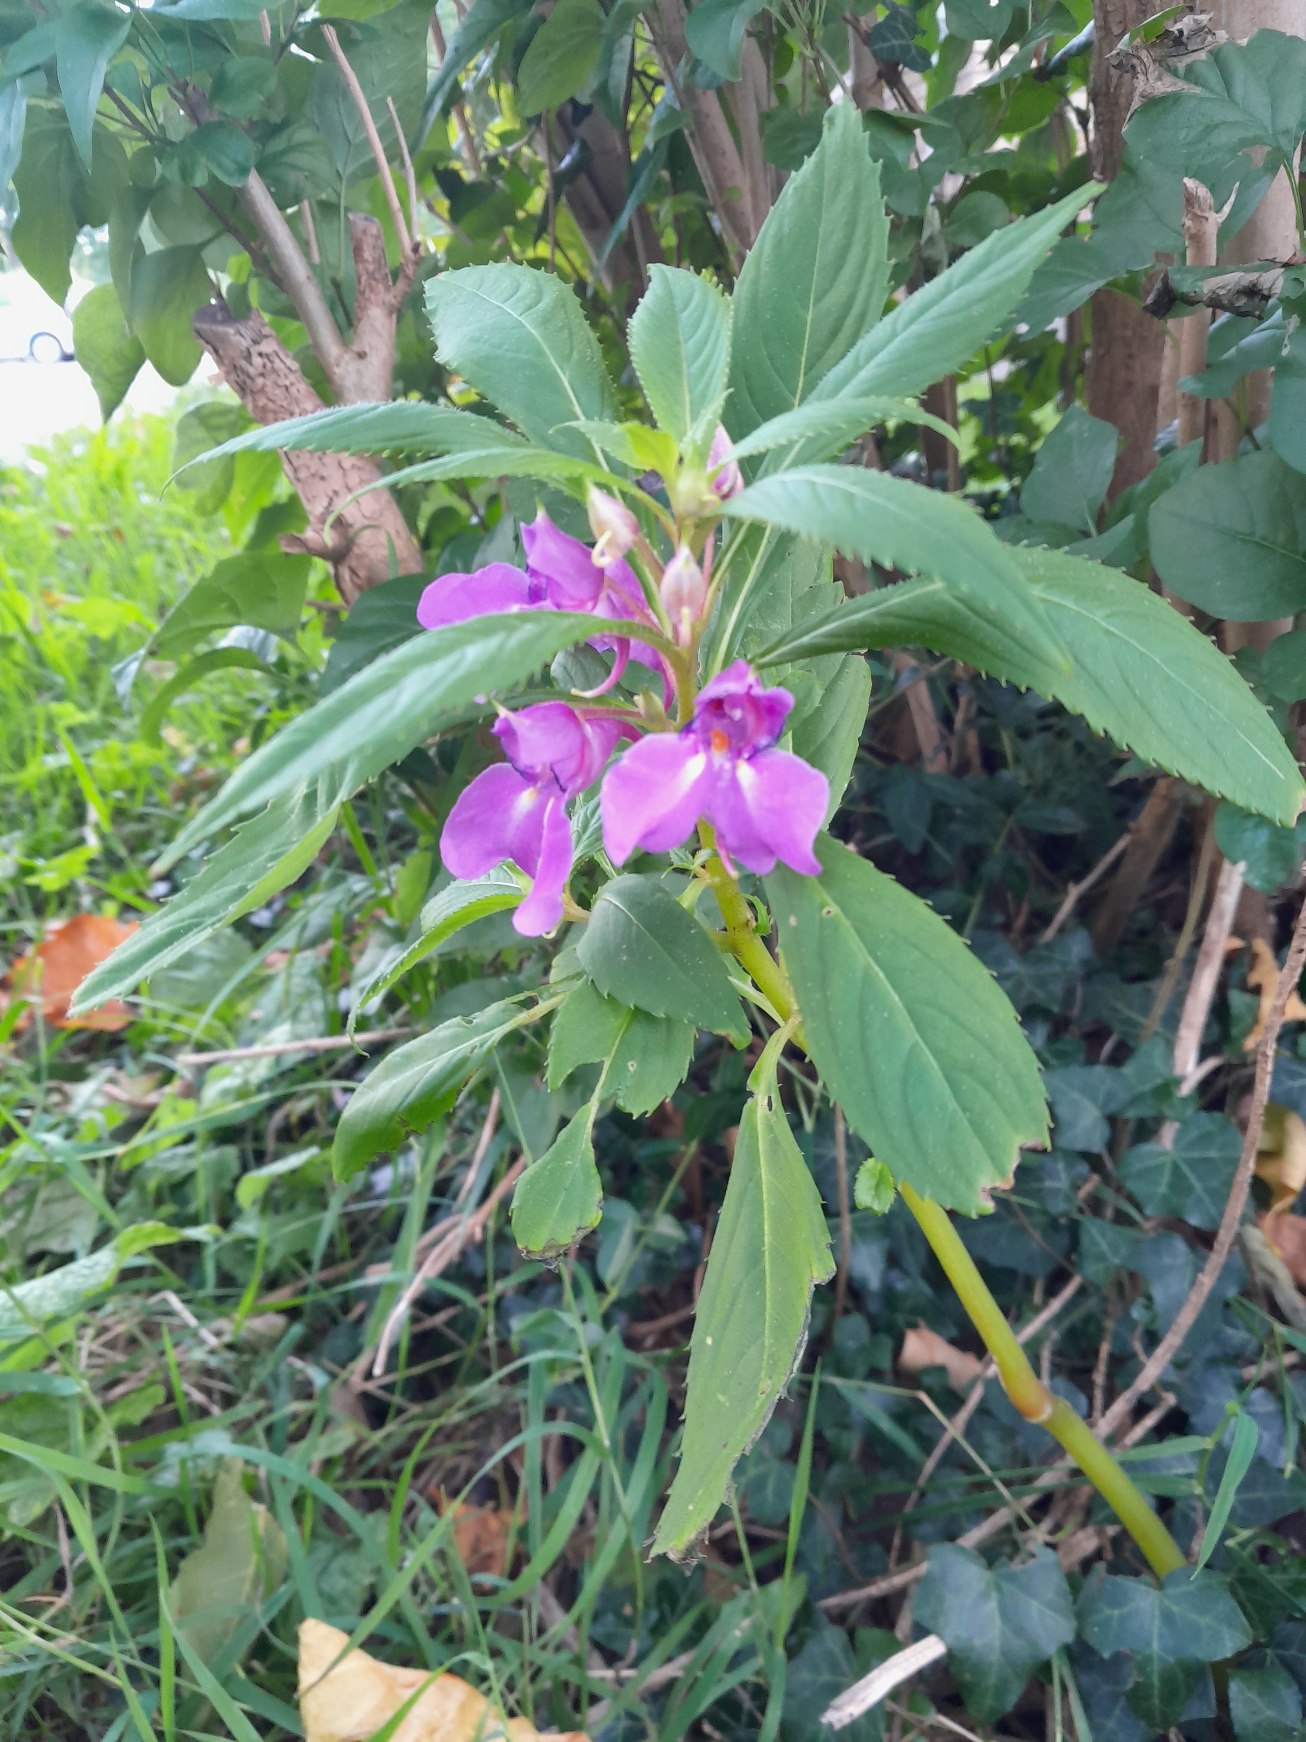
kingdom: Plantae
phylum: Tracheophyta
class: Magnoliopsida
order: Ericales
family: Balsaminaceae
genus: Impatiens
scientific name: Impatiens glandulifera
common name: Kæmpe-balsamin
